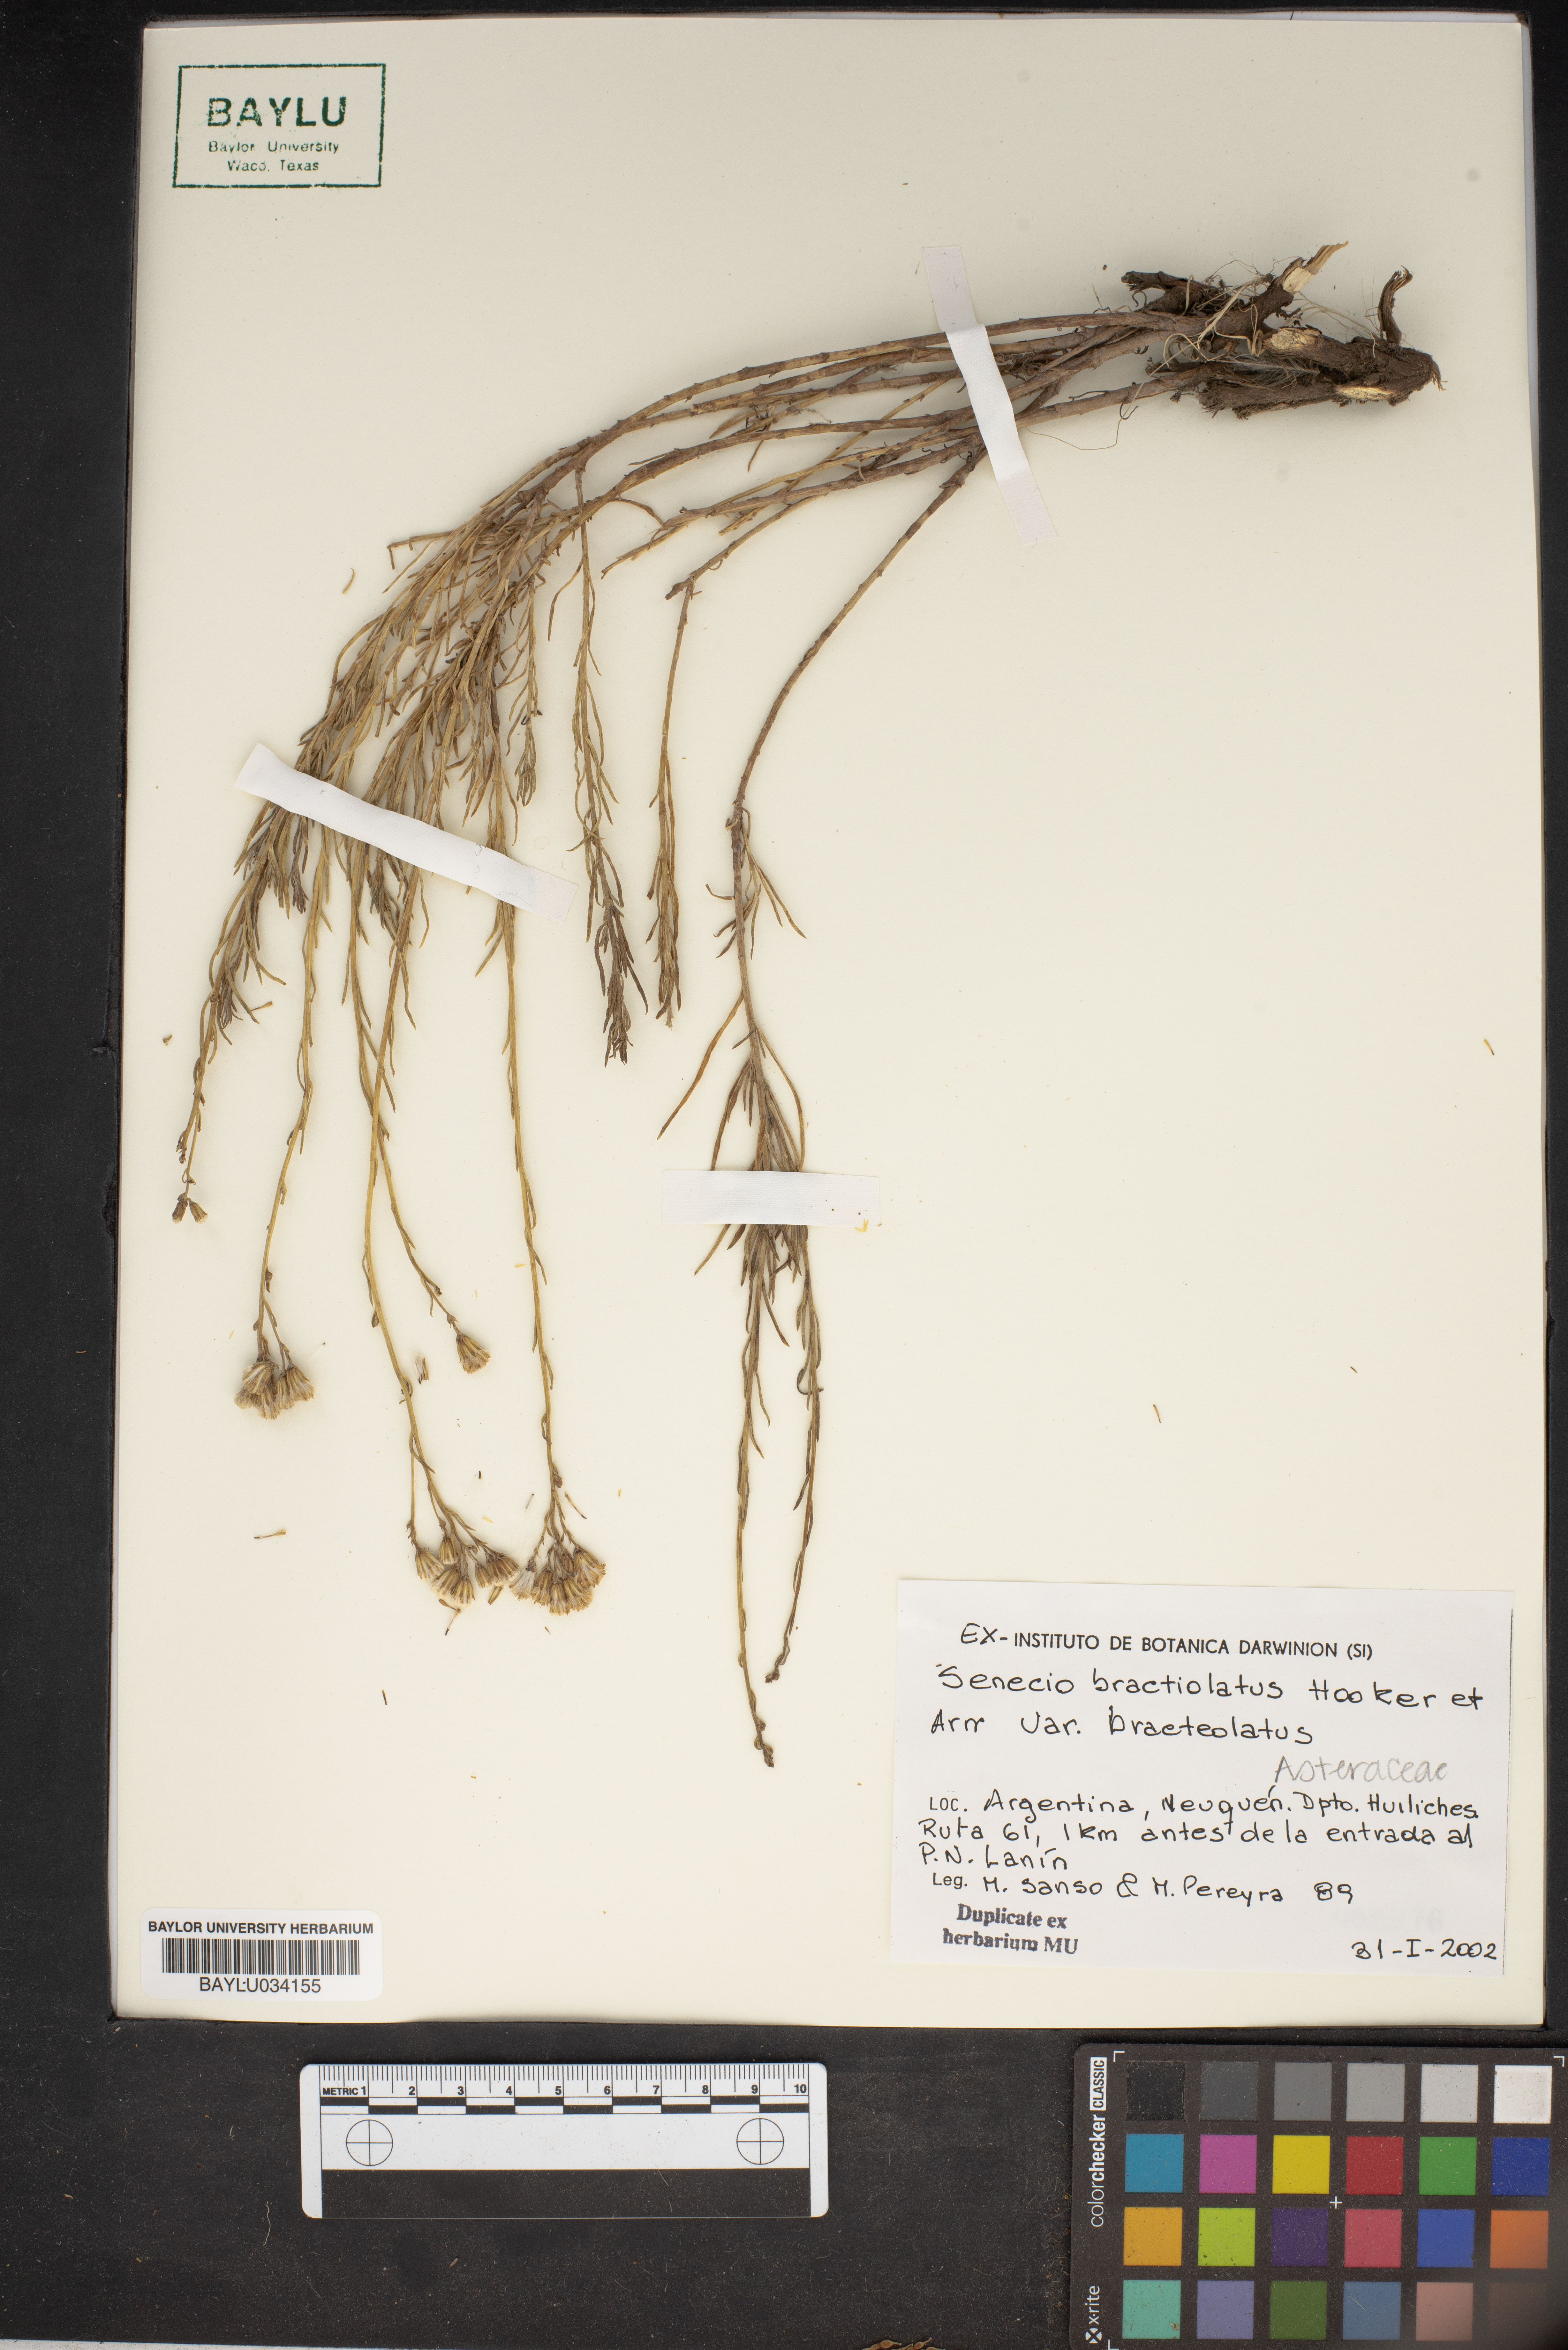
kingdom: Plantae
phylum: Tracheophyta
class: Magnoliopsida
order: Asterales
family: Asteraceae
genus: Senecio
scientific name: Senecio proteus
